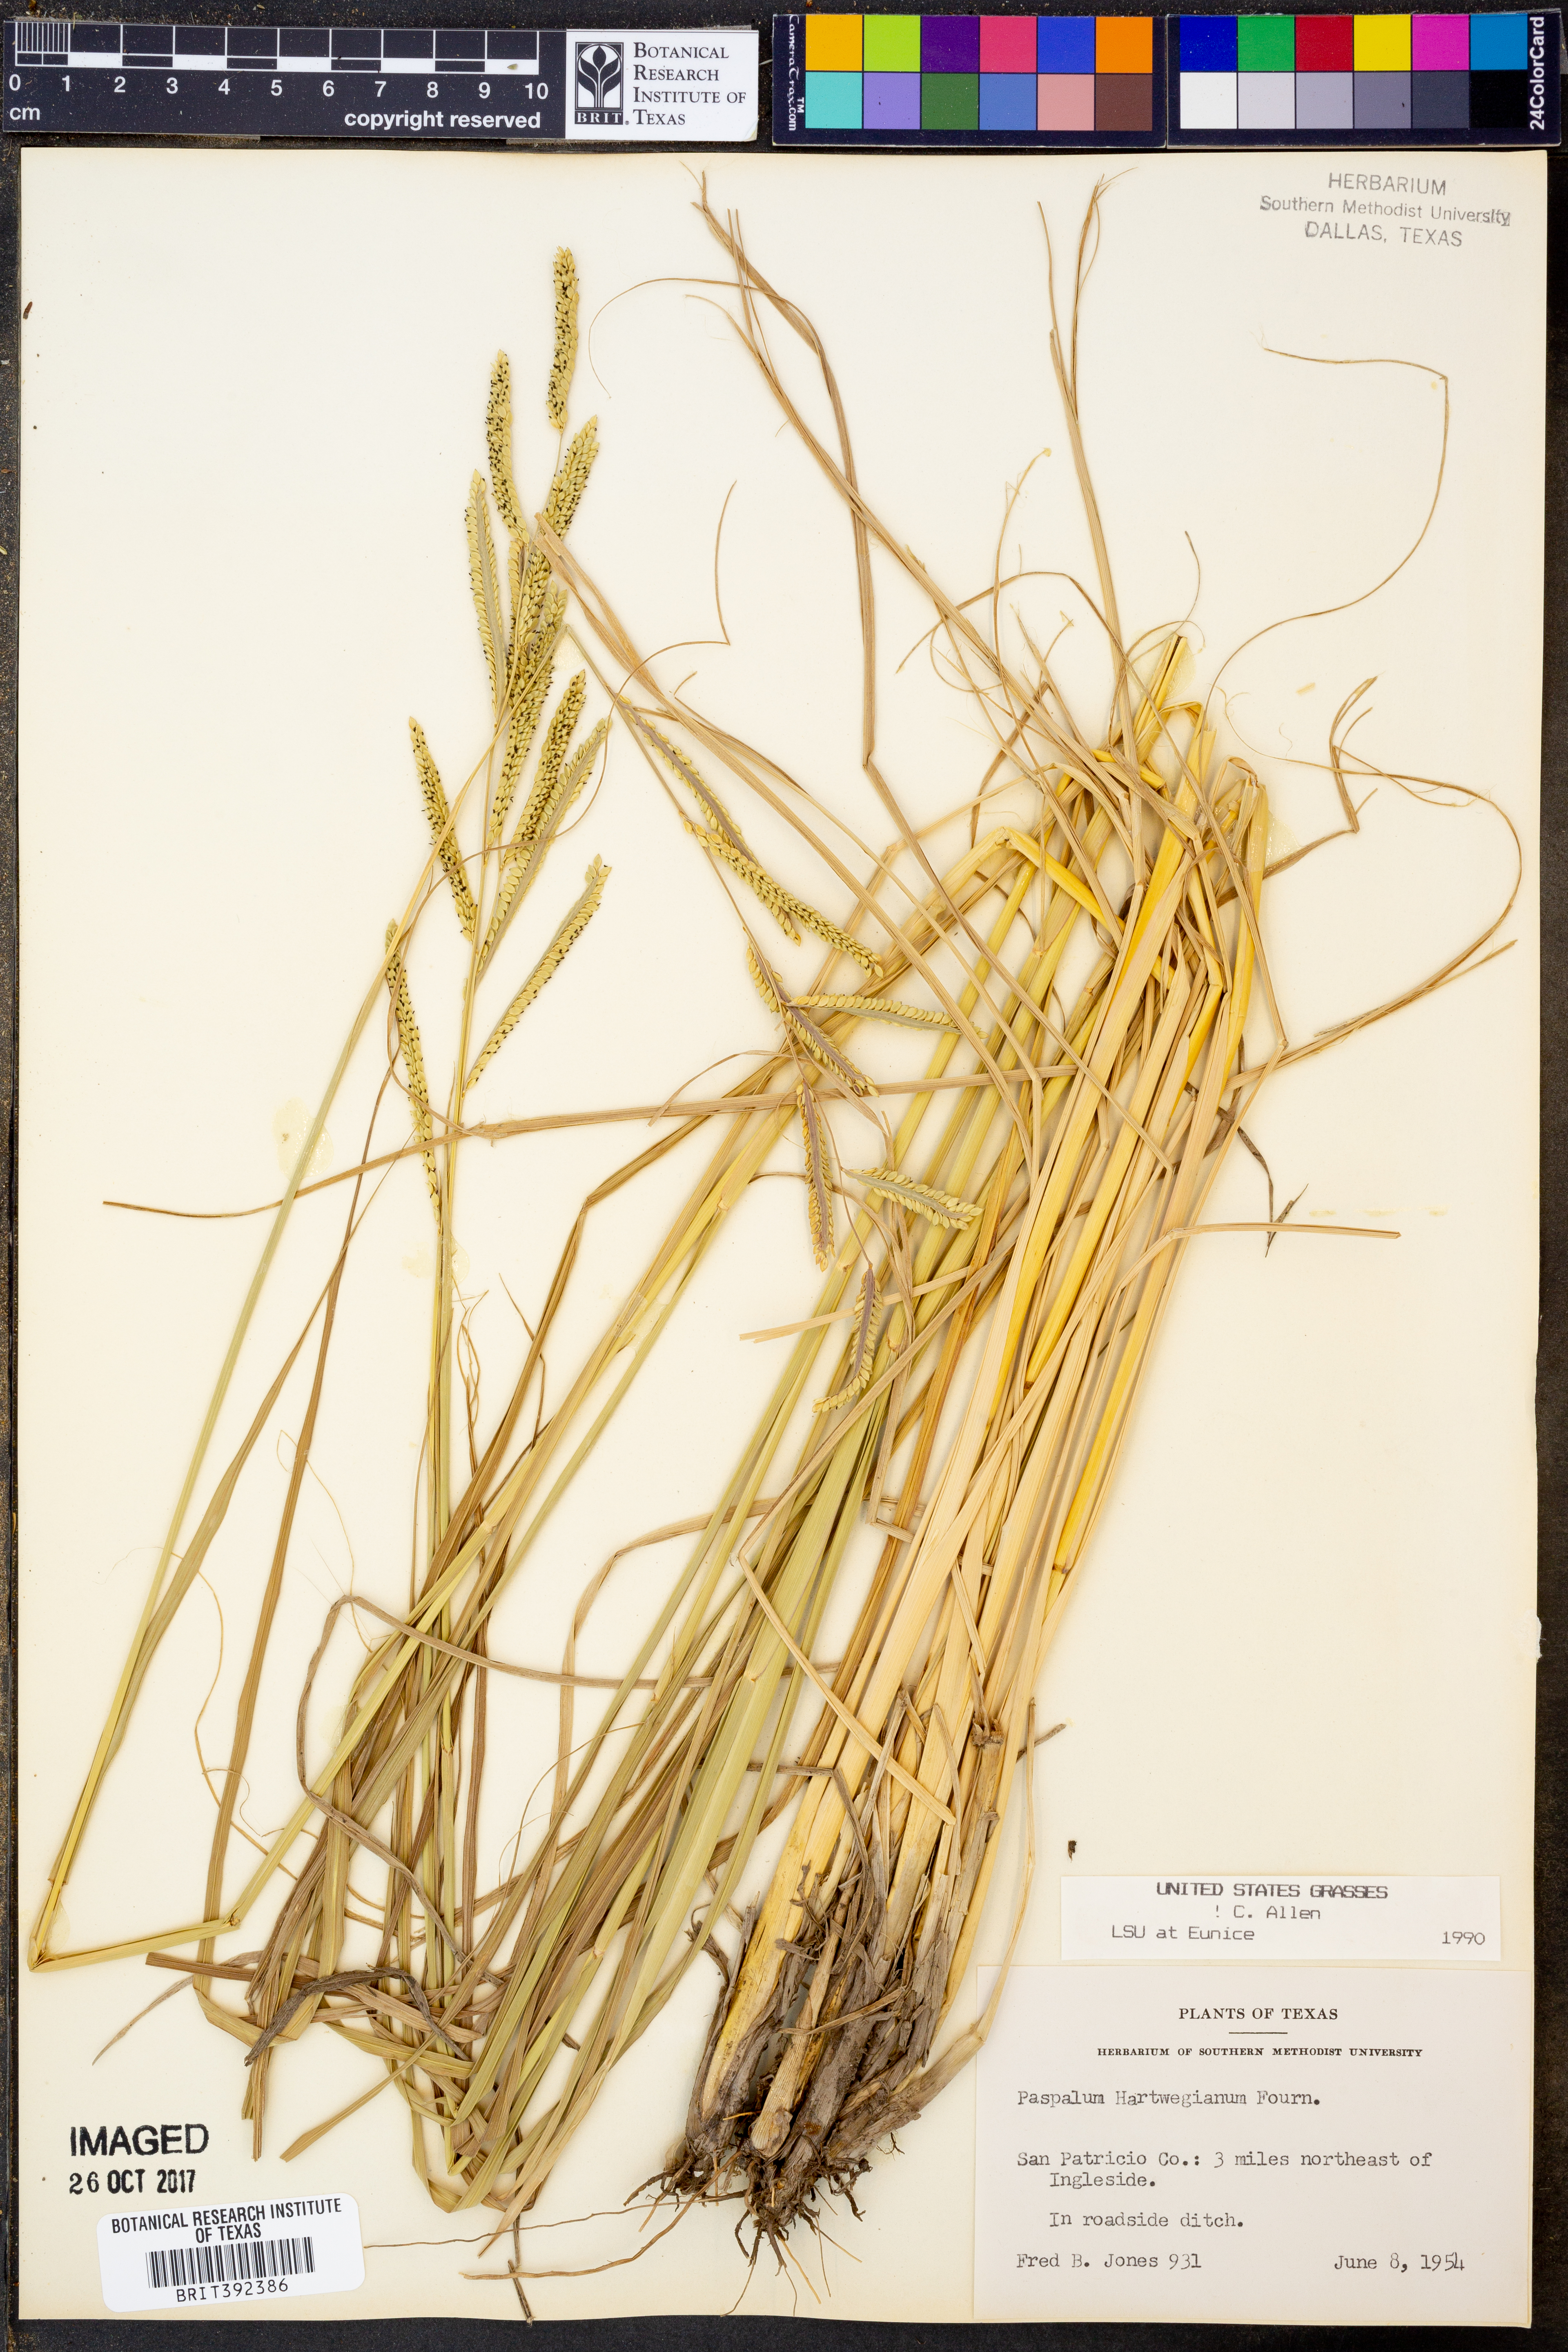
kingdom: Plantae
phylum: Tracheophyta
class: Liliopsida
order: Poales
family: Poaceae
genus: Paspalum
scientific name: Paspalum hartwegianum
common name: Hartweg's paspalum
